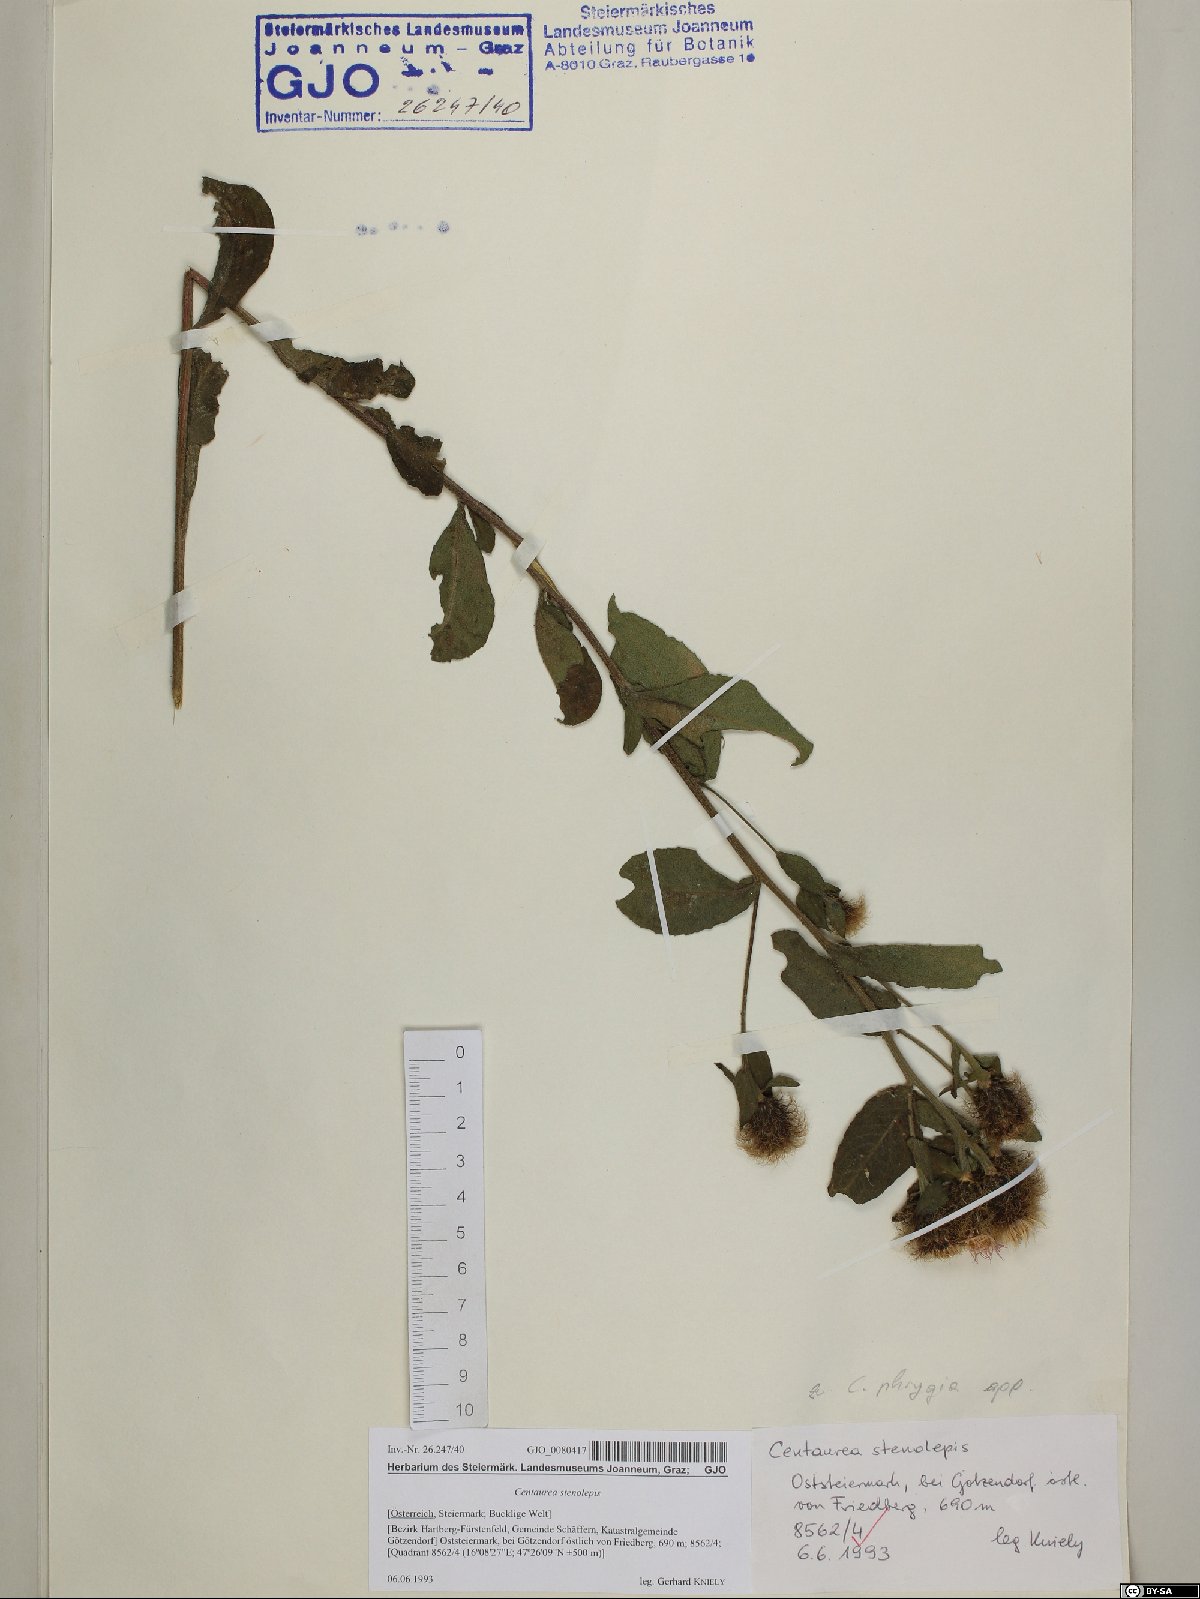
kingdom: Plantae
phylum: Tracheophyta
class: Magnoliopsida
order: Asterales
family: Asteraceae
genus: Centaurea
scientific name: Centaurea stenolepis
